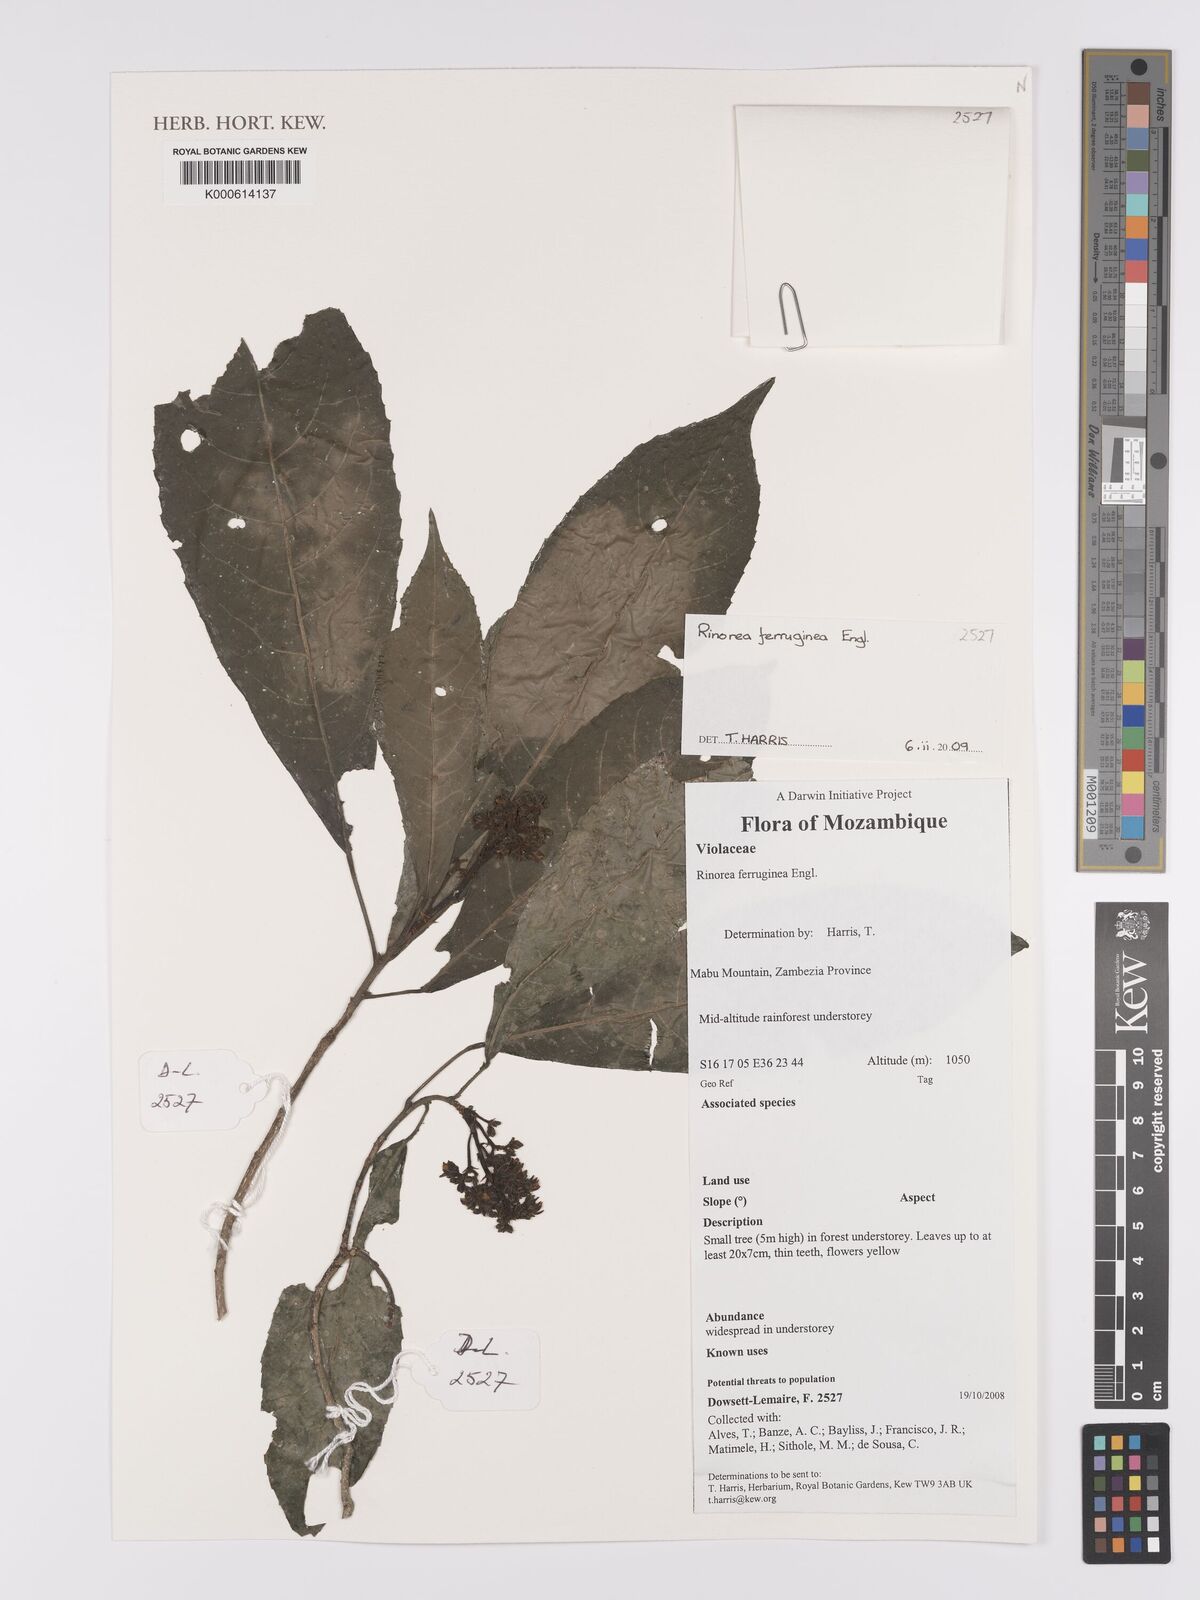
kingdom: Plantae
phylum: Tracheophyta
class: Magnoliopsida
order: Malpighiales
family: Violaceae
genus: Rinorea
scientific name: Rinorea ferruginea
